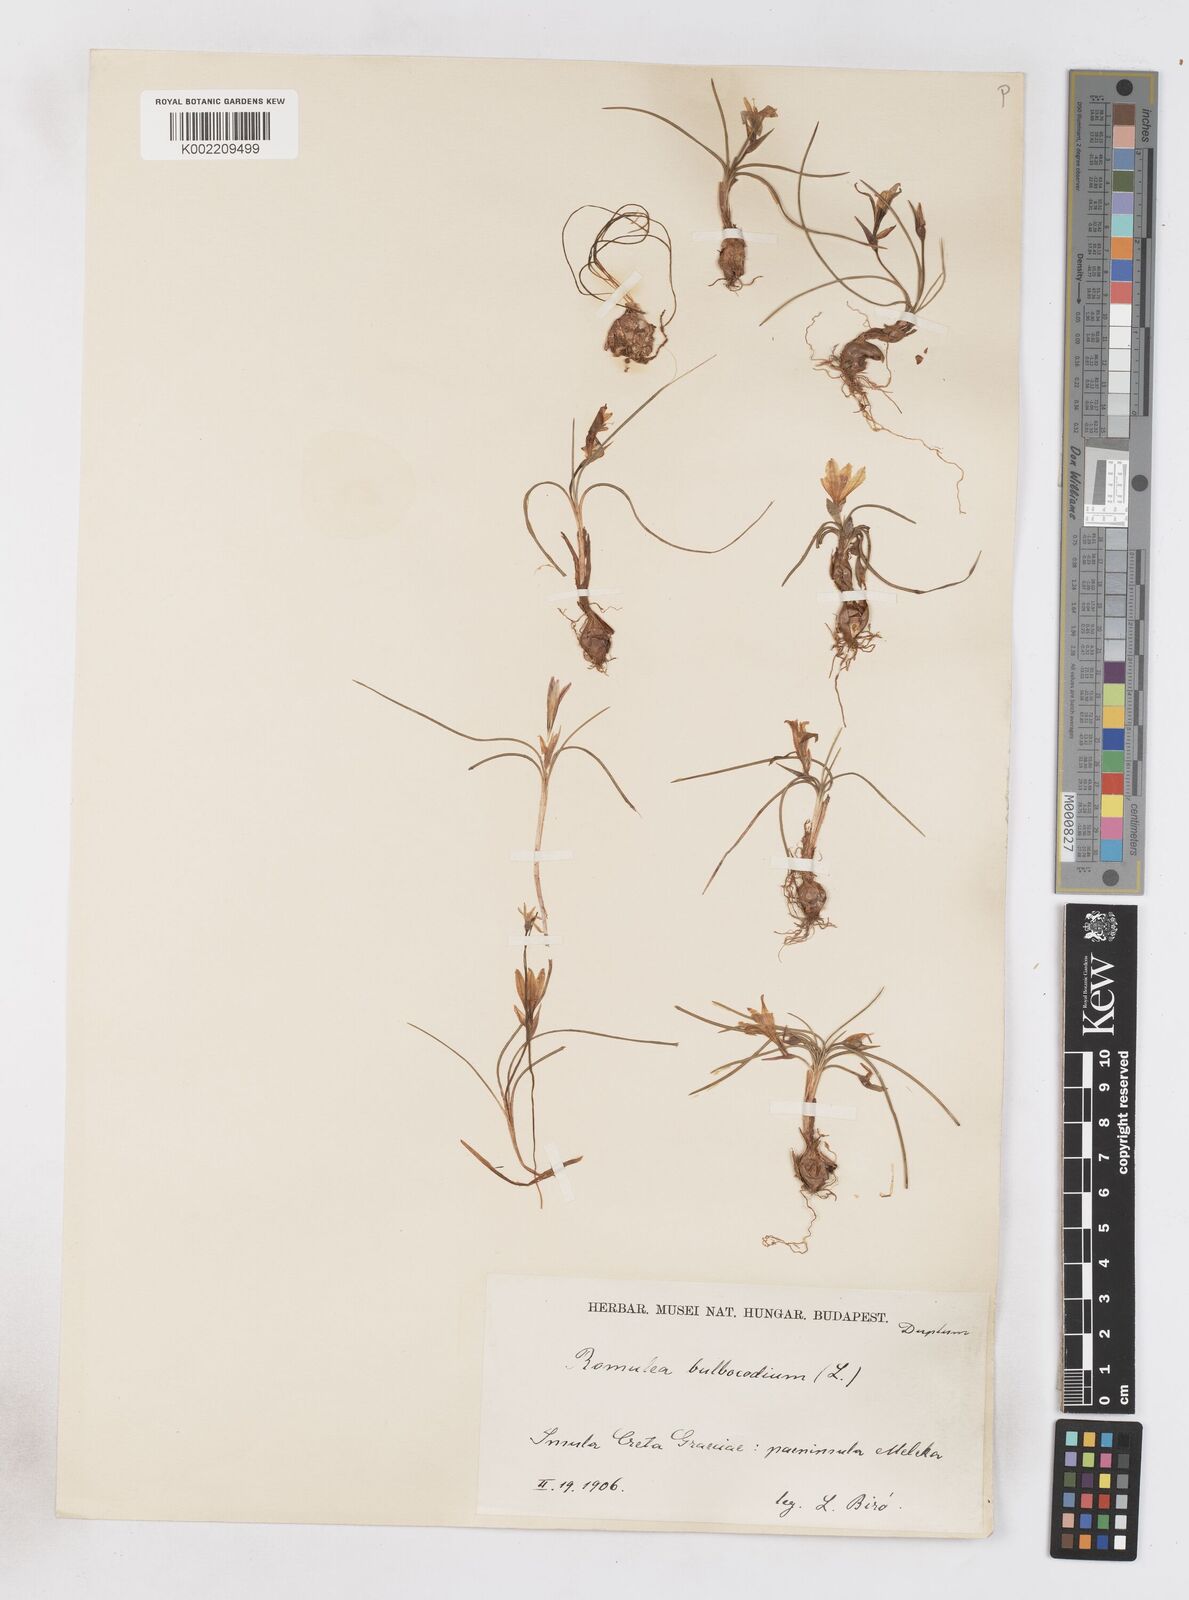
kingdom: Plantae
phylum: Tracheophyta
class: Liliopsida
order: Asparagales
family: Iridaceae
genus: Romulea
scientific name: Romulea bulbocodium
